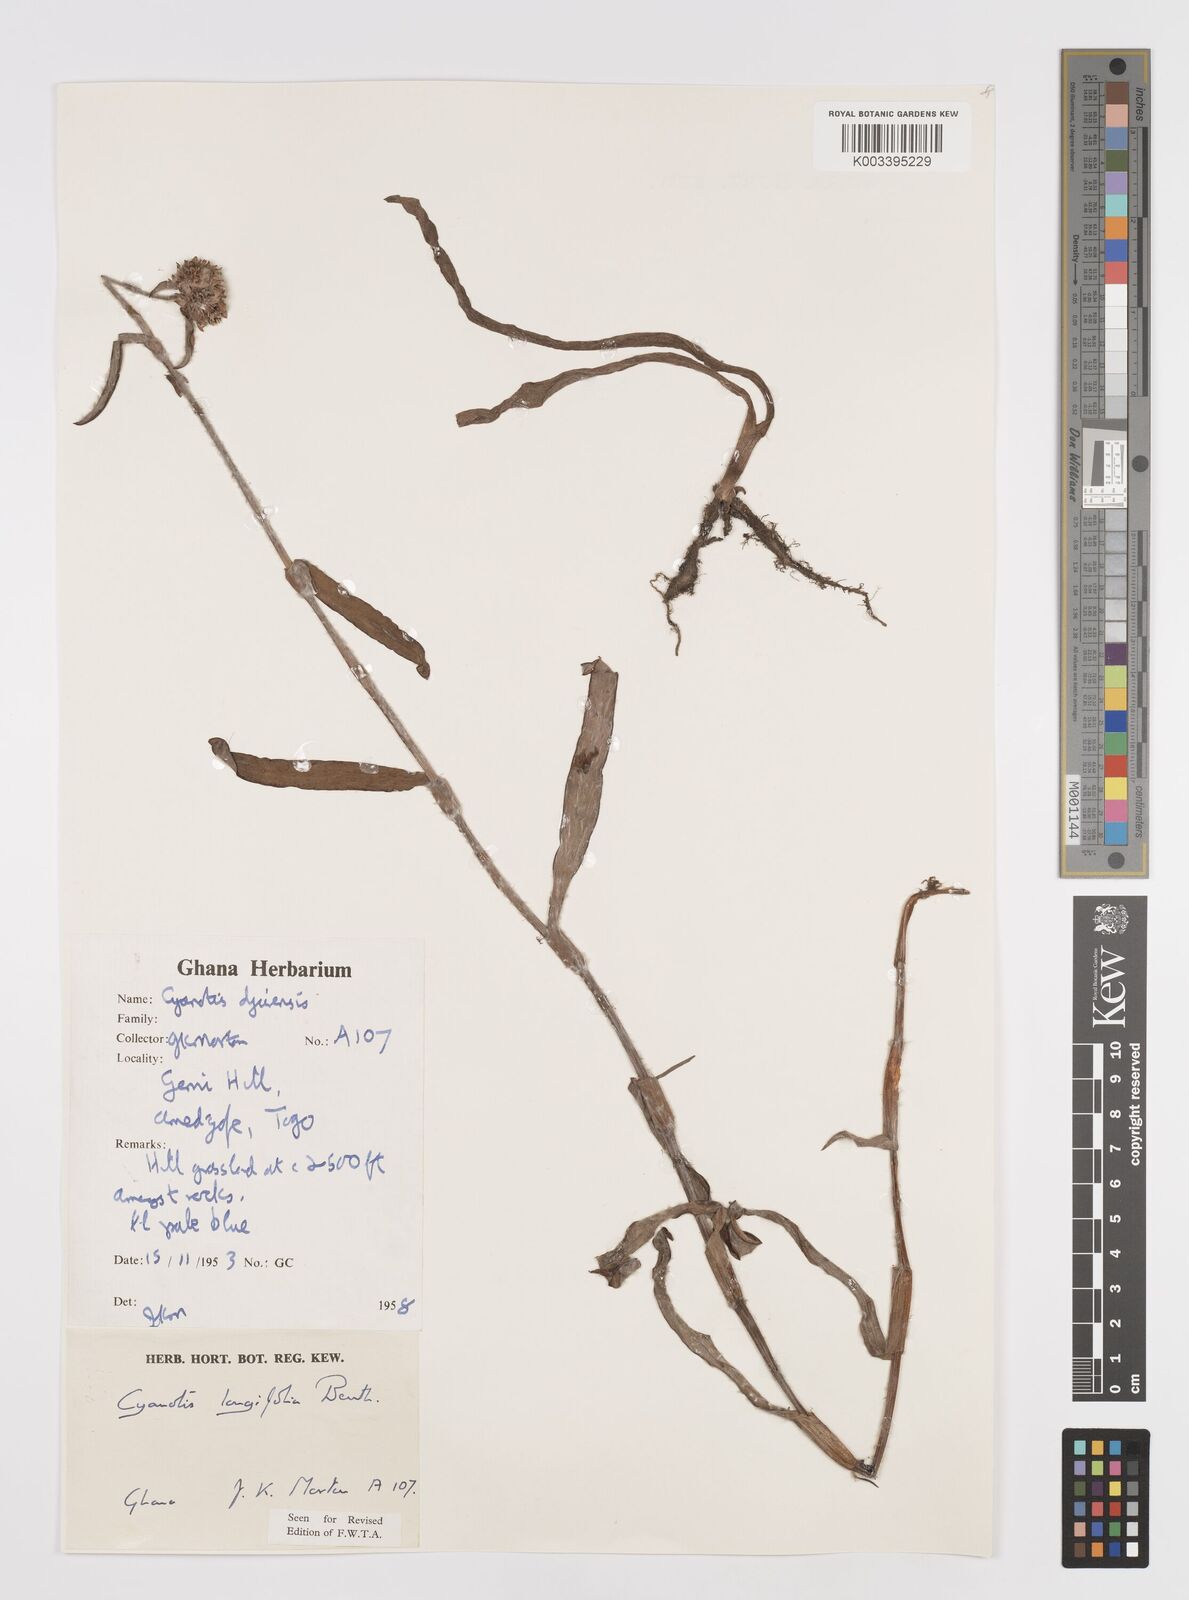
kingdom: Plantae
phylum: Tracheophyta
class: Liliopsida
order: Commelinales
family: Commelinaceae
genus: Cyanotis
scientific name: Cyanotis
